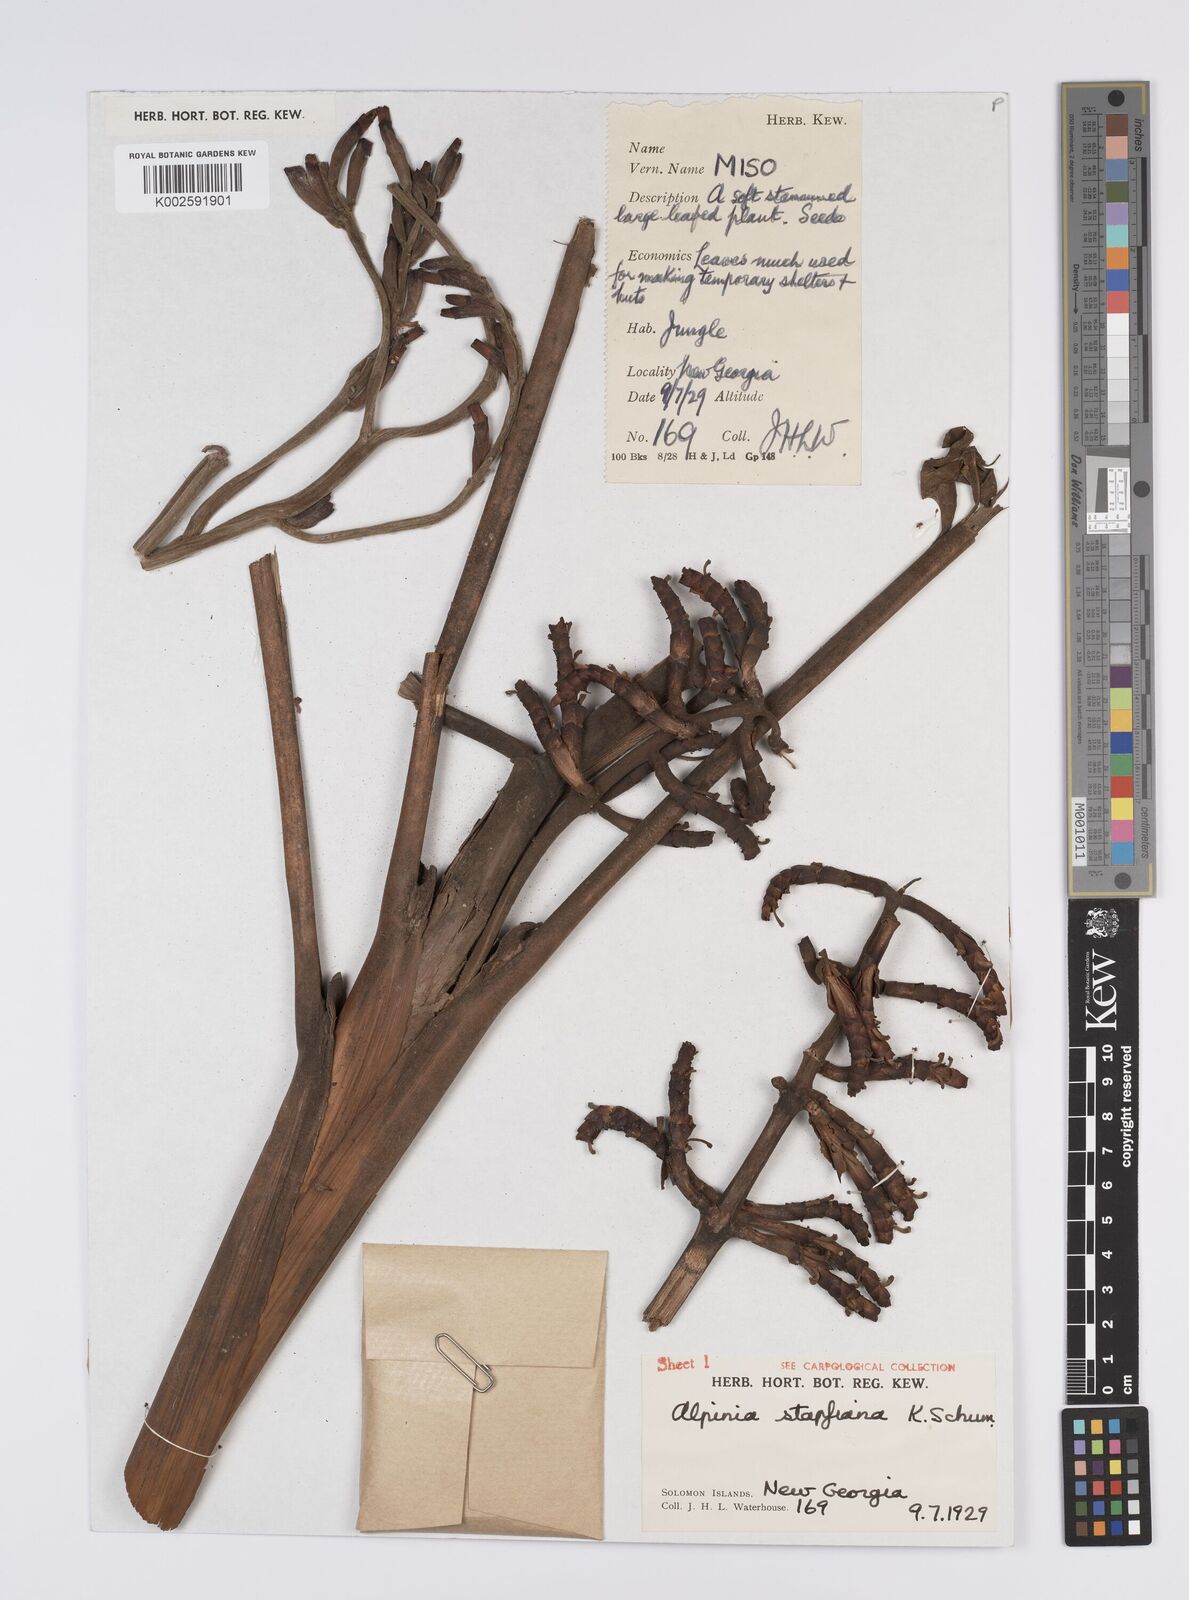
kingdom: Plantae
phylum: Tracheophyta
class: Liliopsida
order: Zingiberales
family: Zingiberaceae
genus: Alpinia
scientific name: Alpinia pulchra
